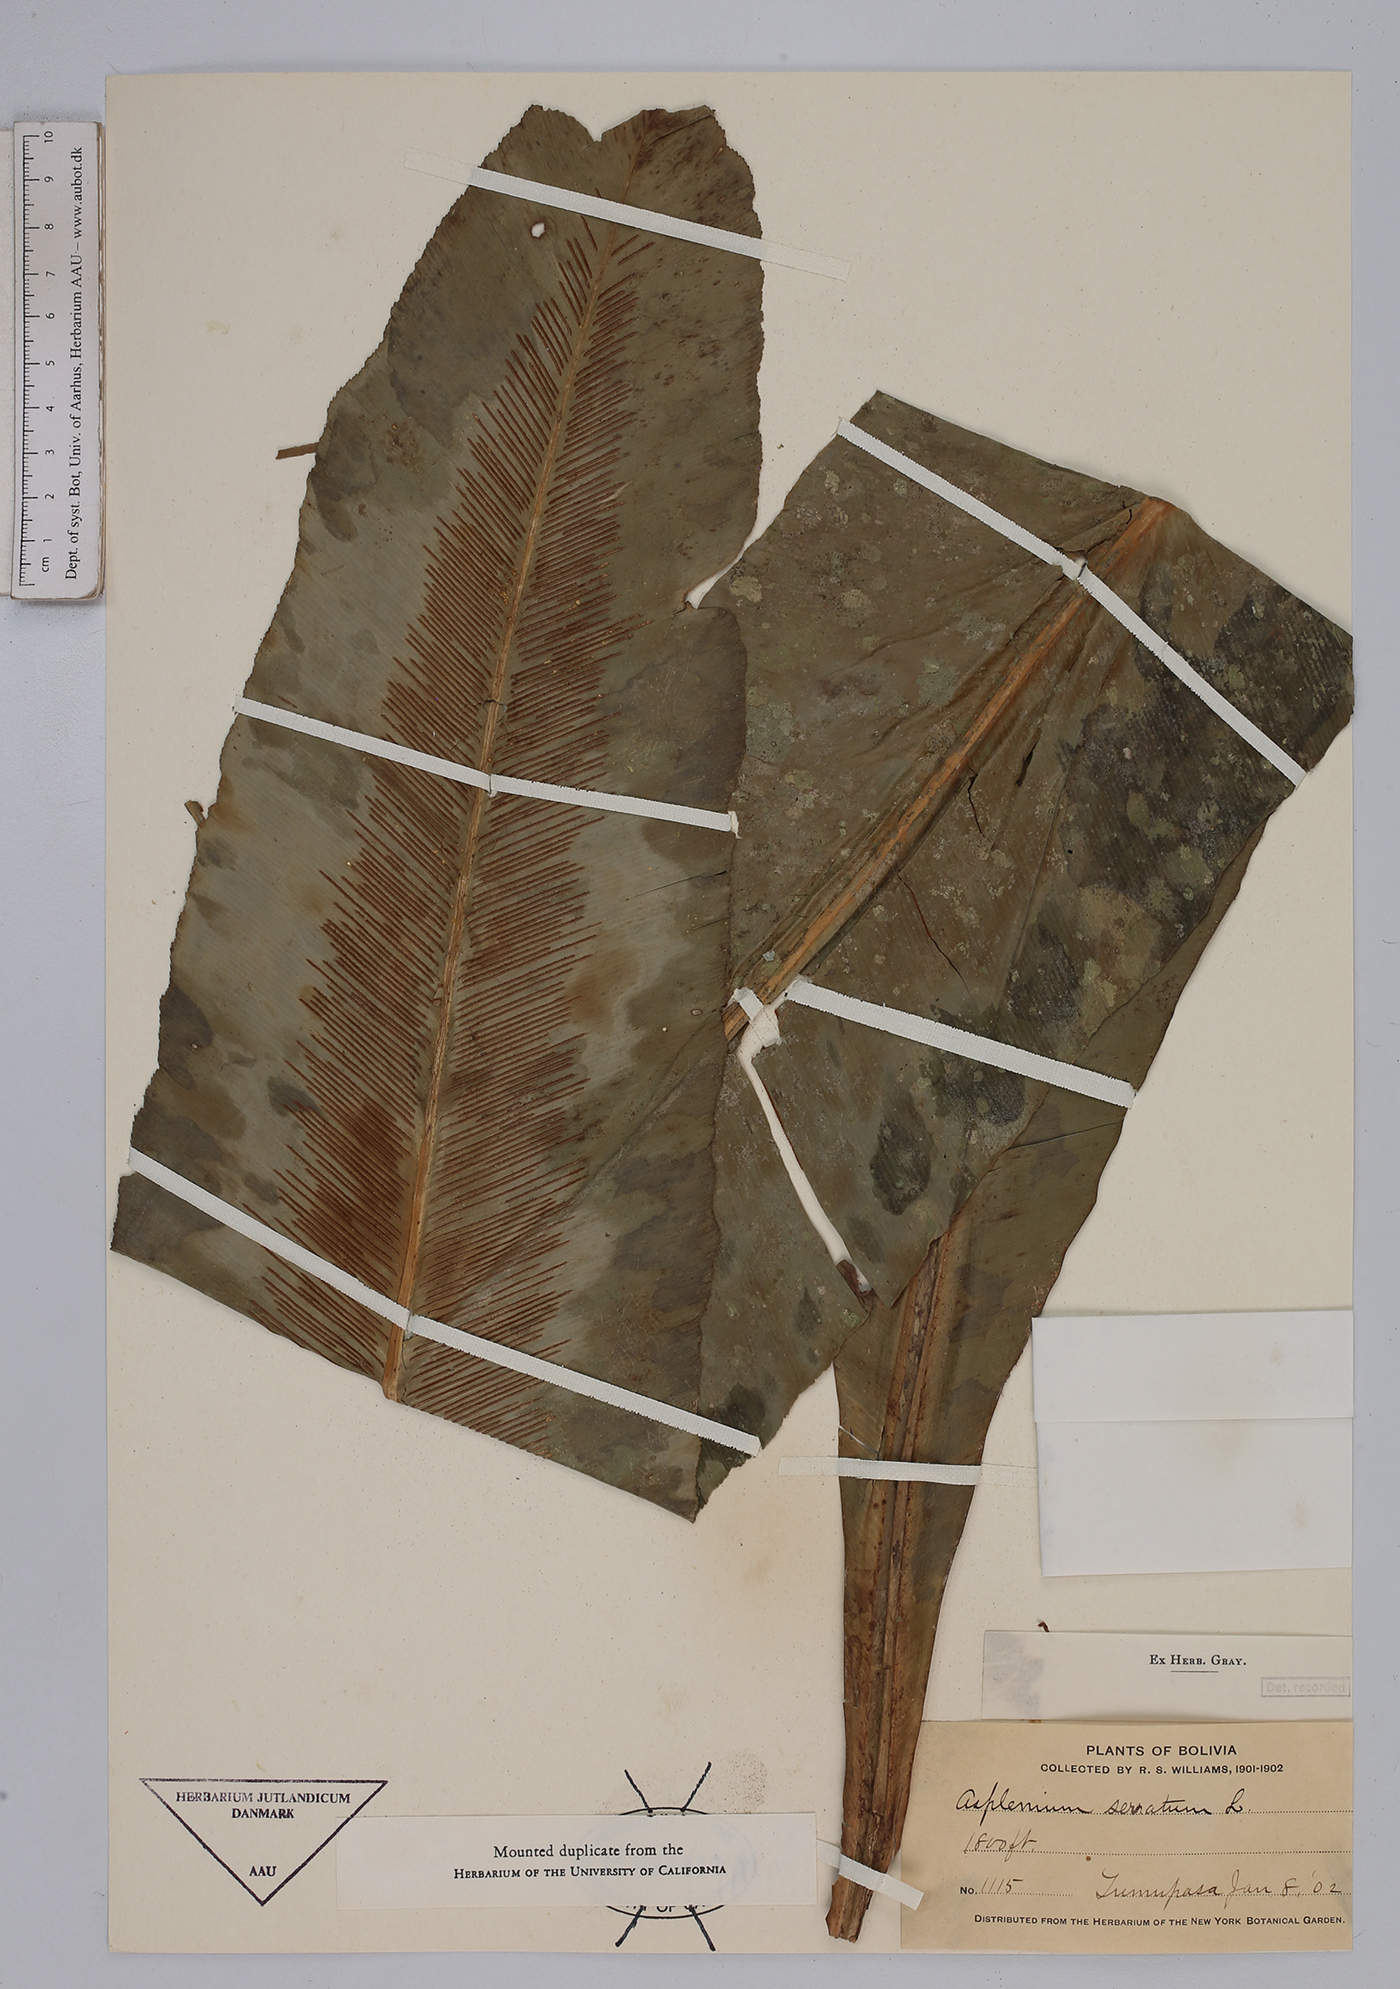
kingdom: Plantae
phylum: Tracheophyta
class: Polypodiopsida
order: Polypodiales
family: Aspleniaceae
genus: Asplenium
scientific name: Asplenium serratum
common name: Wild birdnest fern
